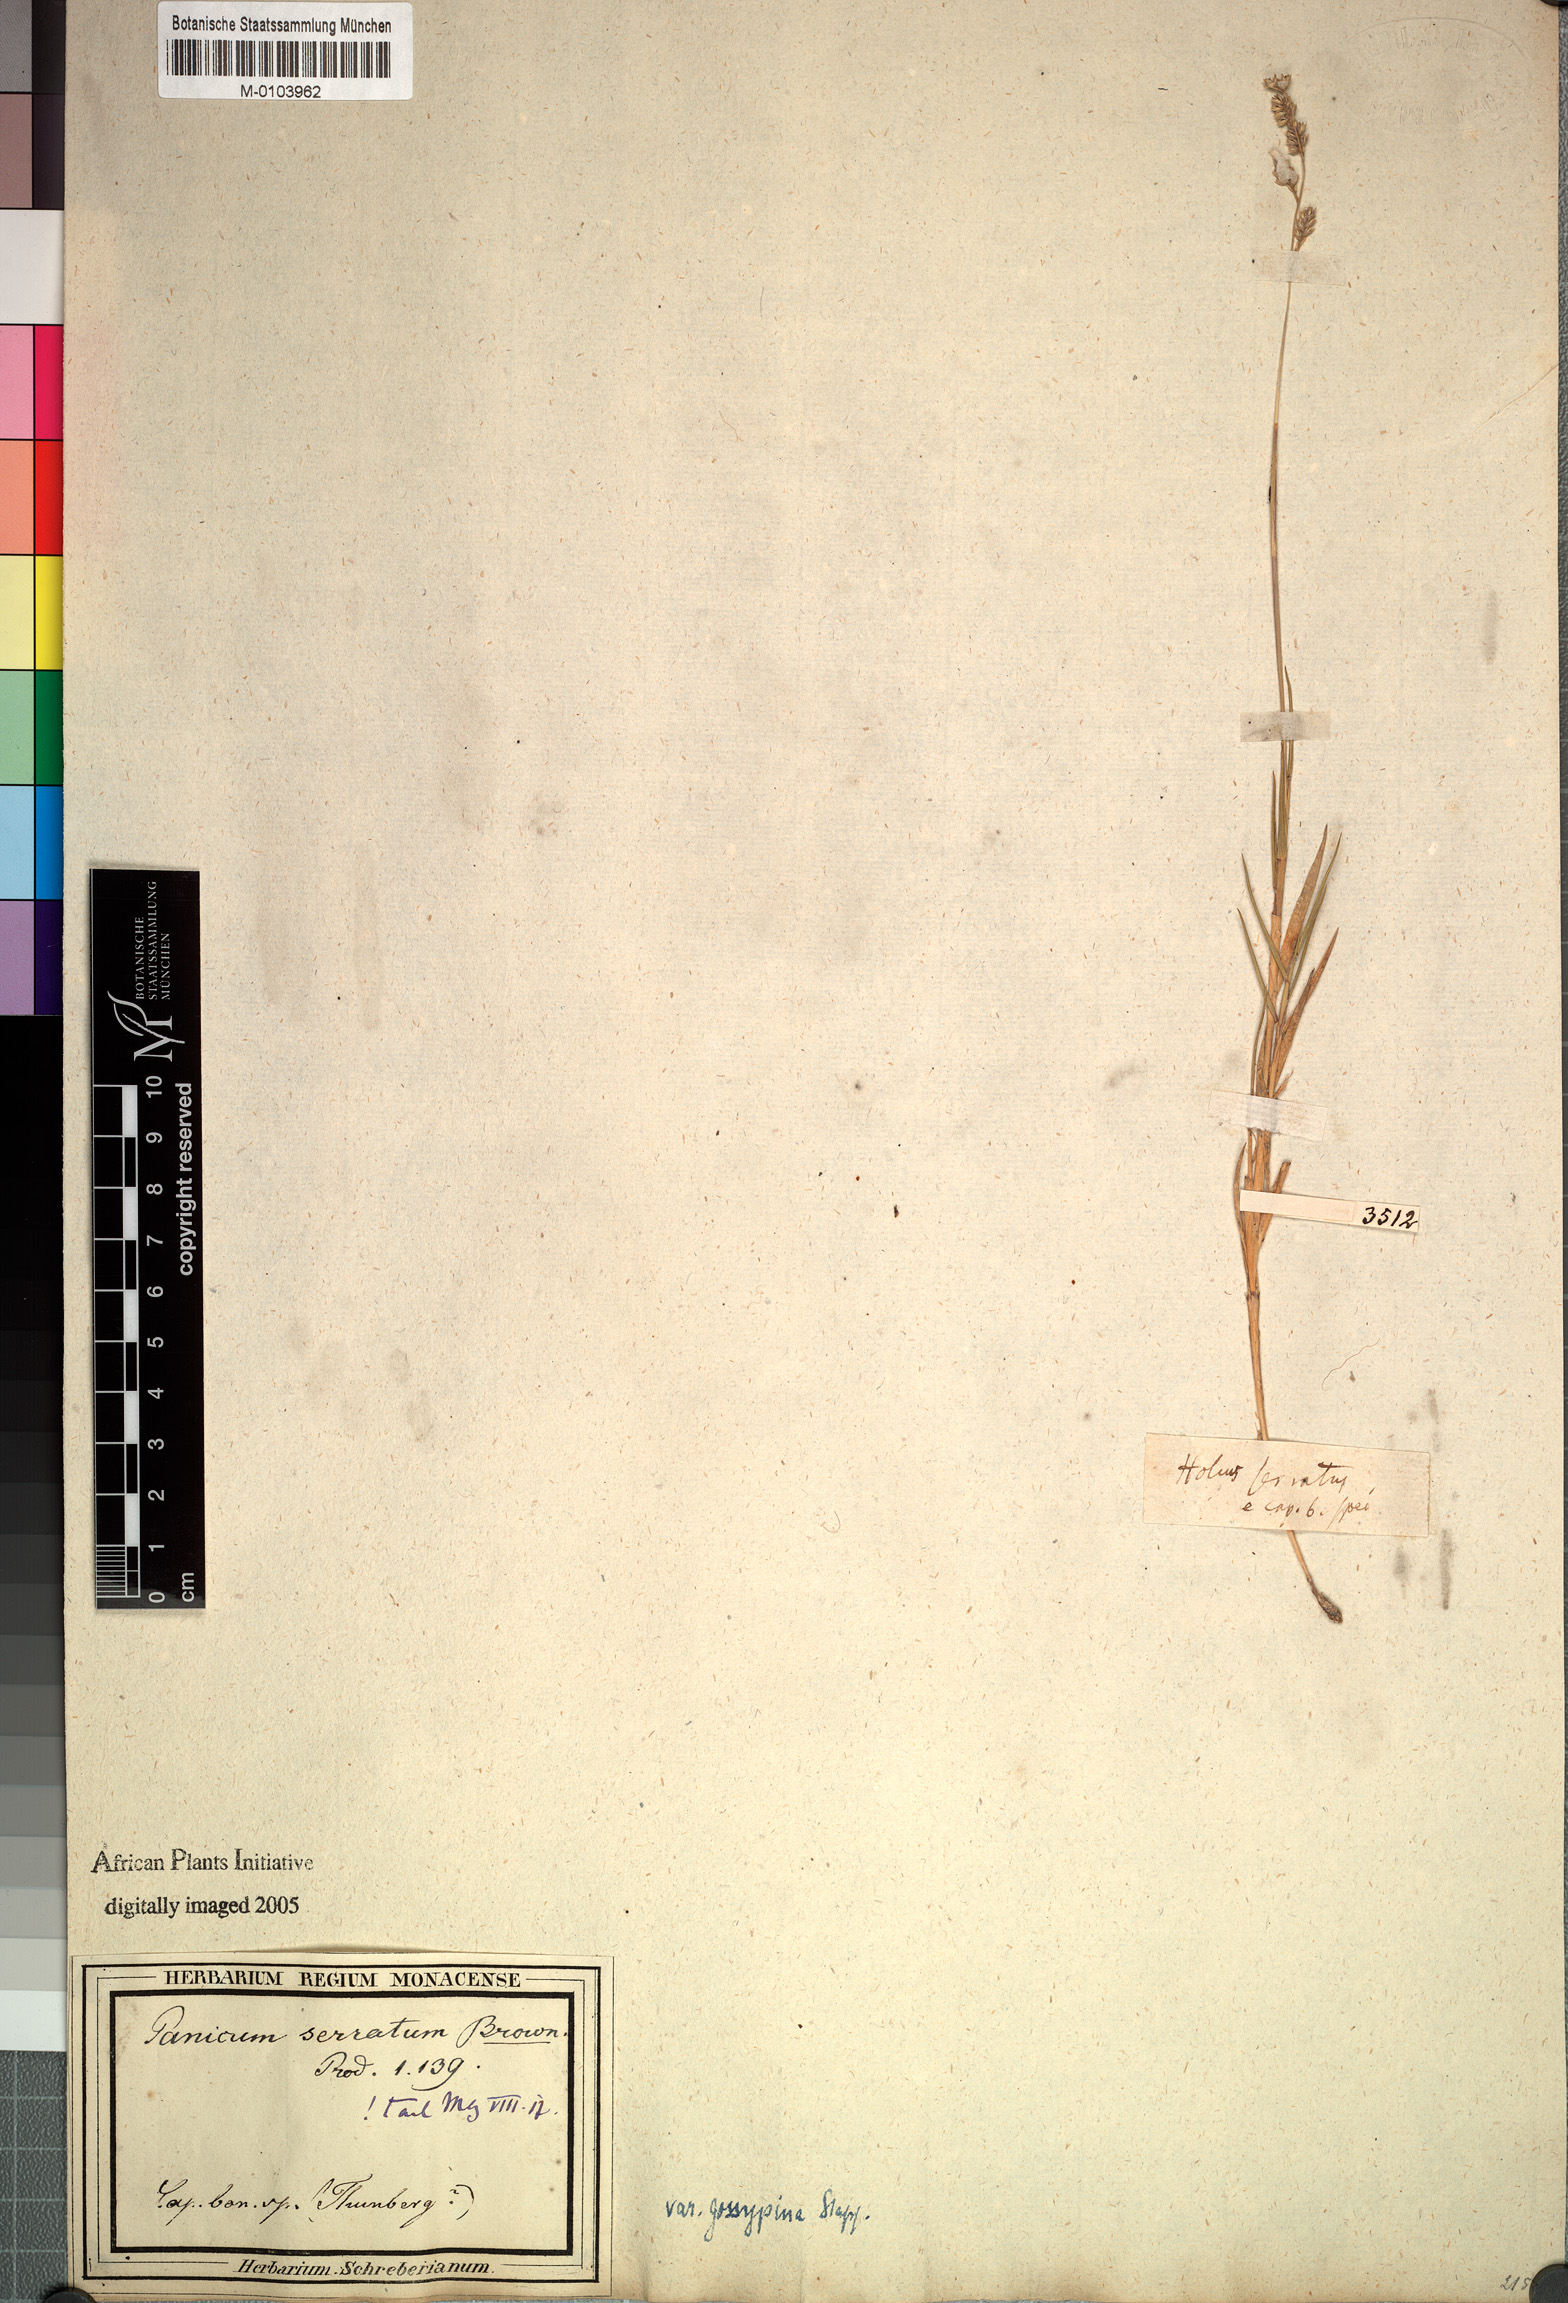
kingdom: Plantae
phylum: Tracheophyta
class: Liliopsida
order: Poales
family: Poaceae
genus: Urochloa
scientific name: Urochloa serrata
